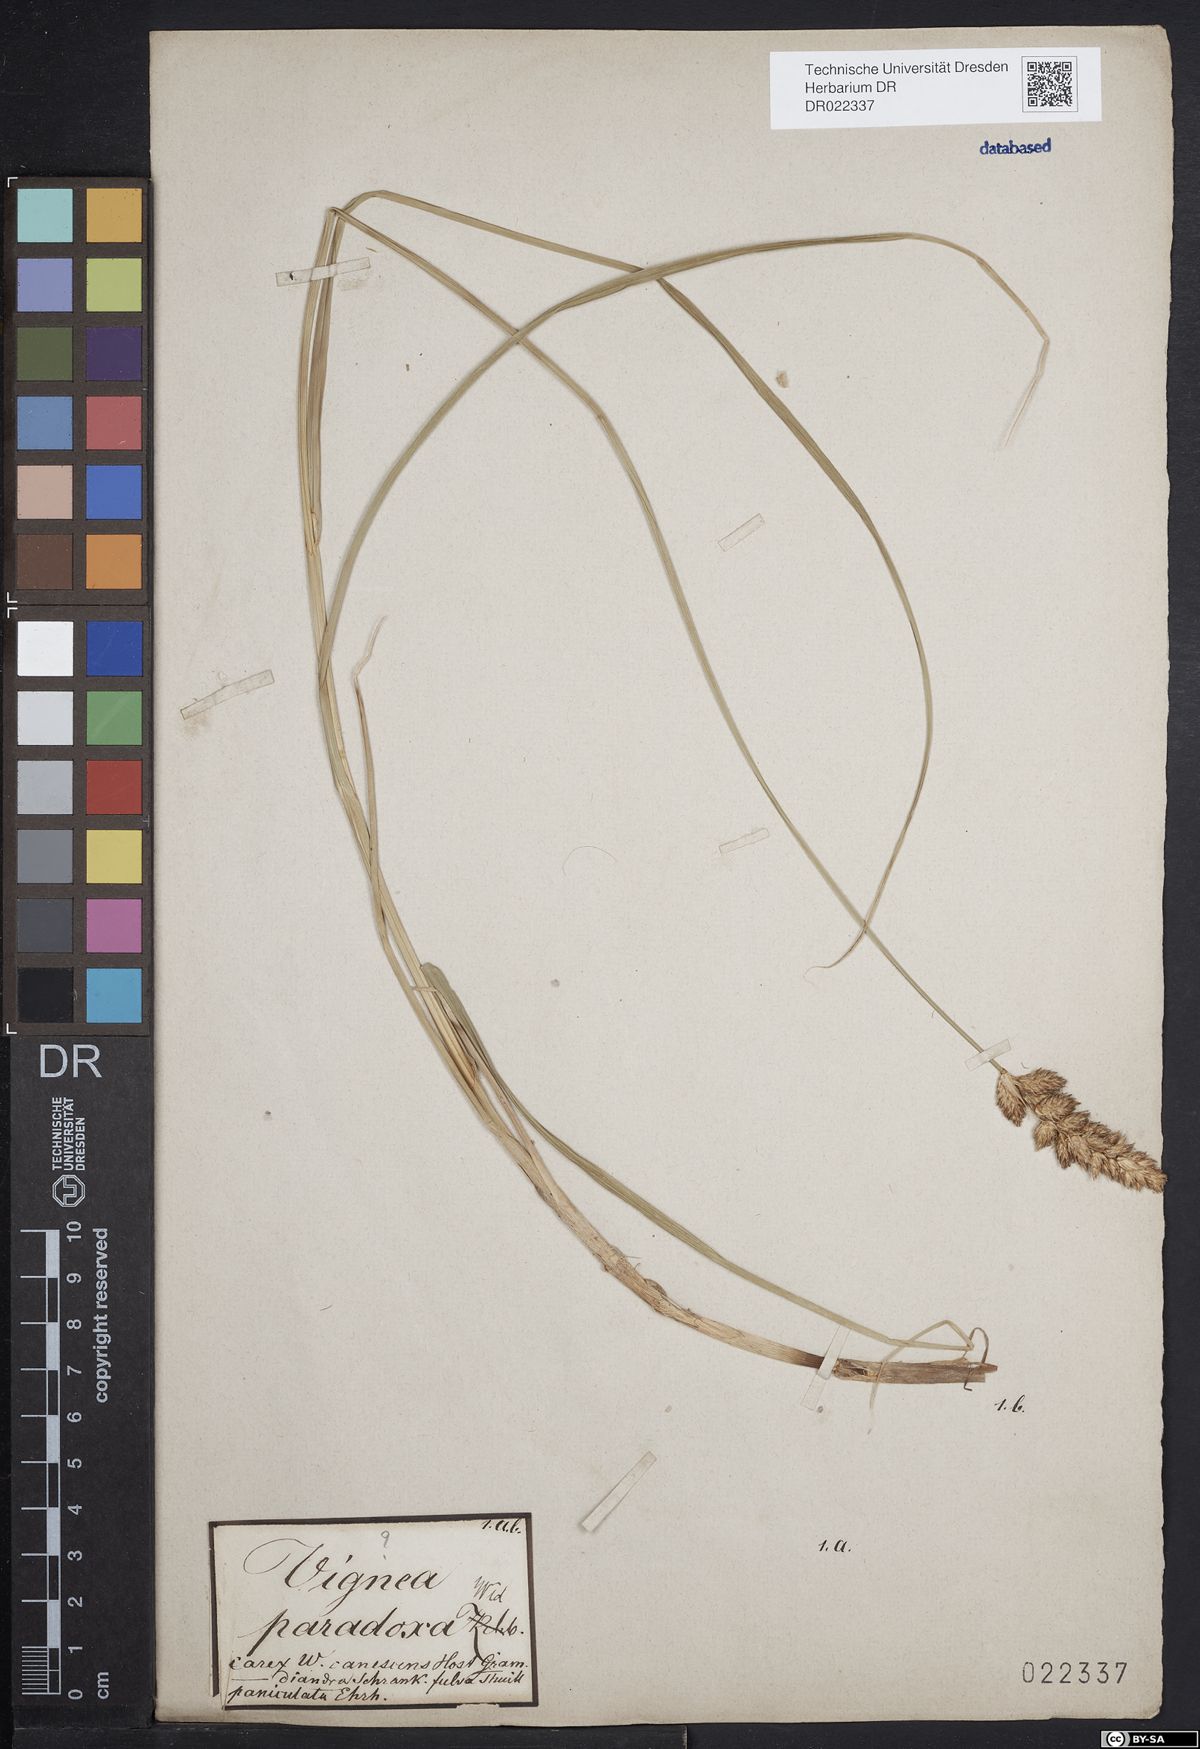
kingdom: Plantae
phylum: Tracheophyta
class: Liliopsida
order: Poales
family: Cyperaceae
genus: Carex
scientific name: Carex disticha
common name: Brown sedge
